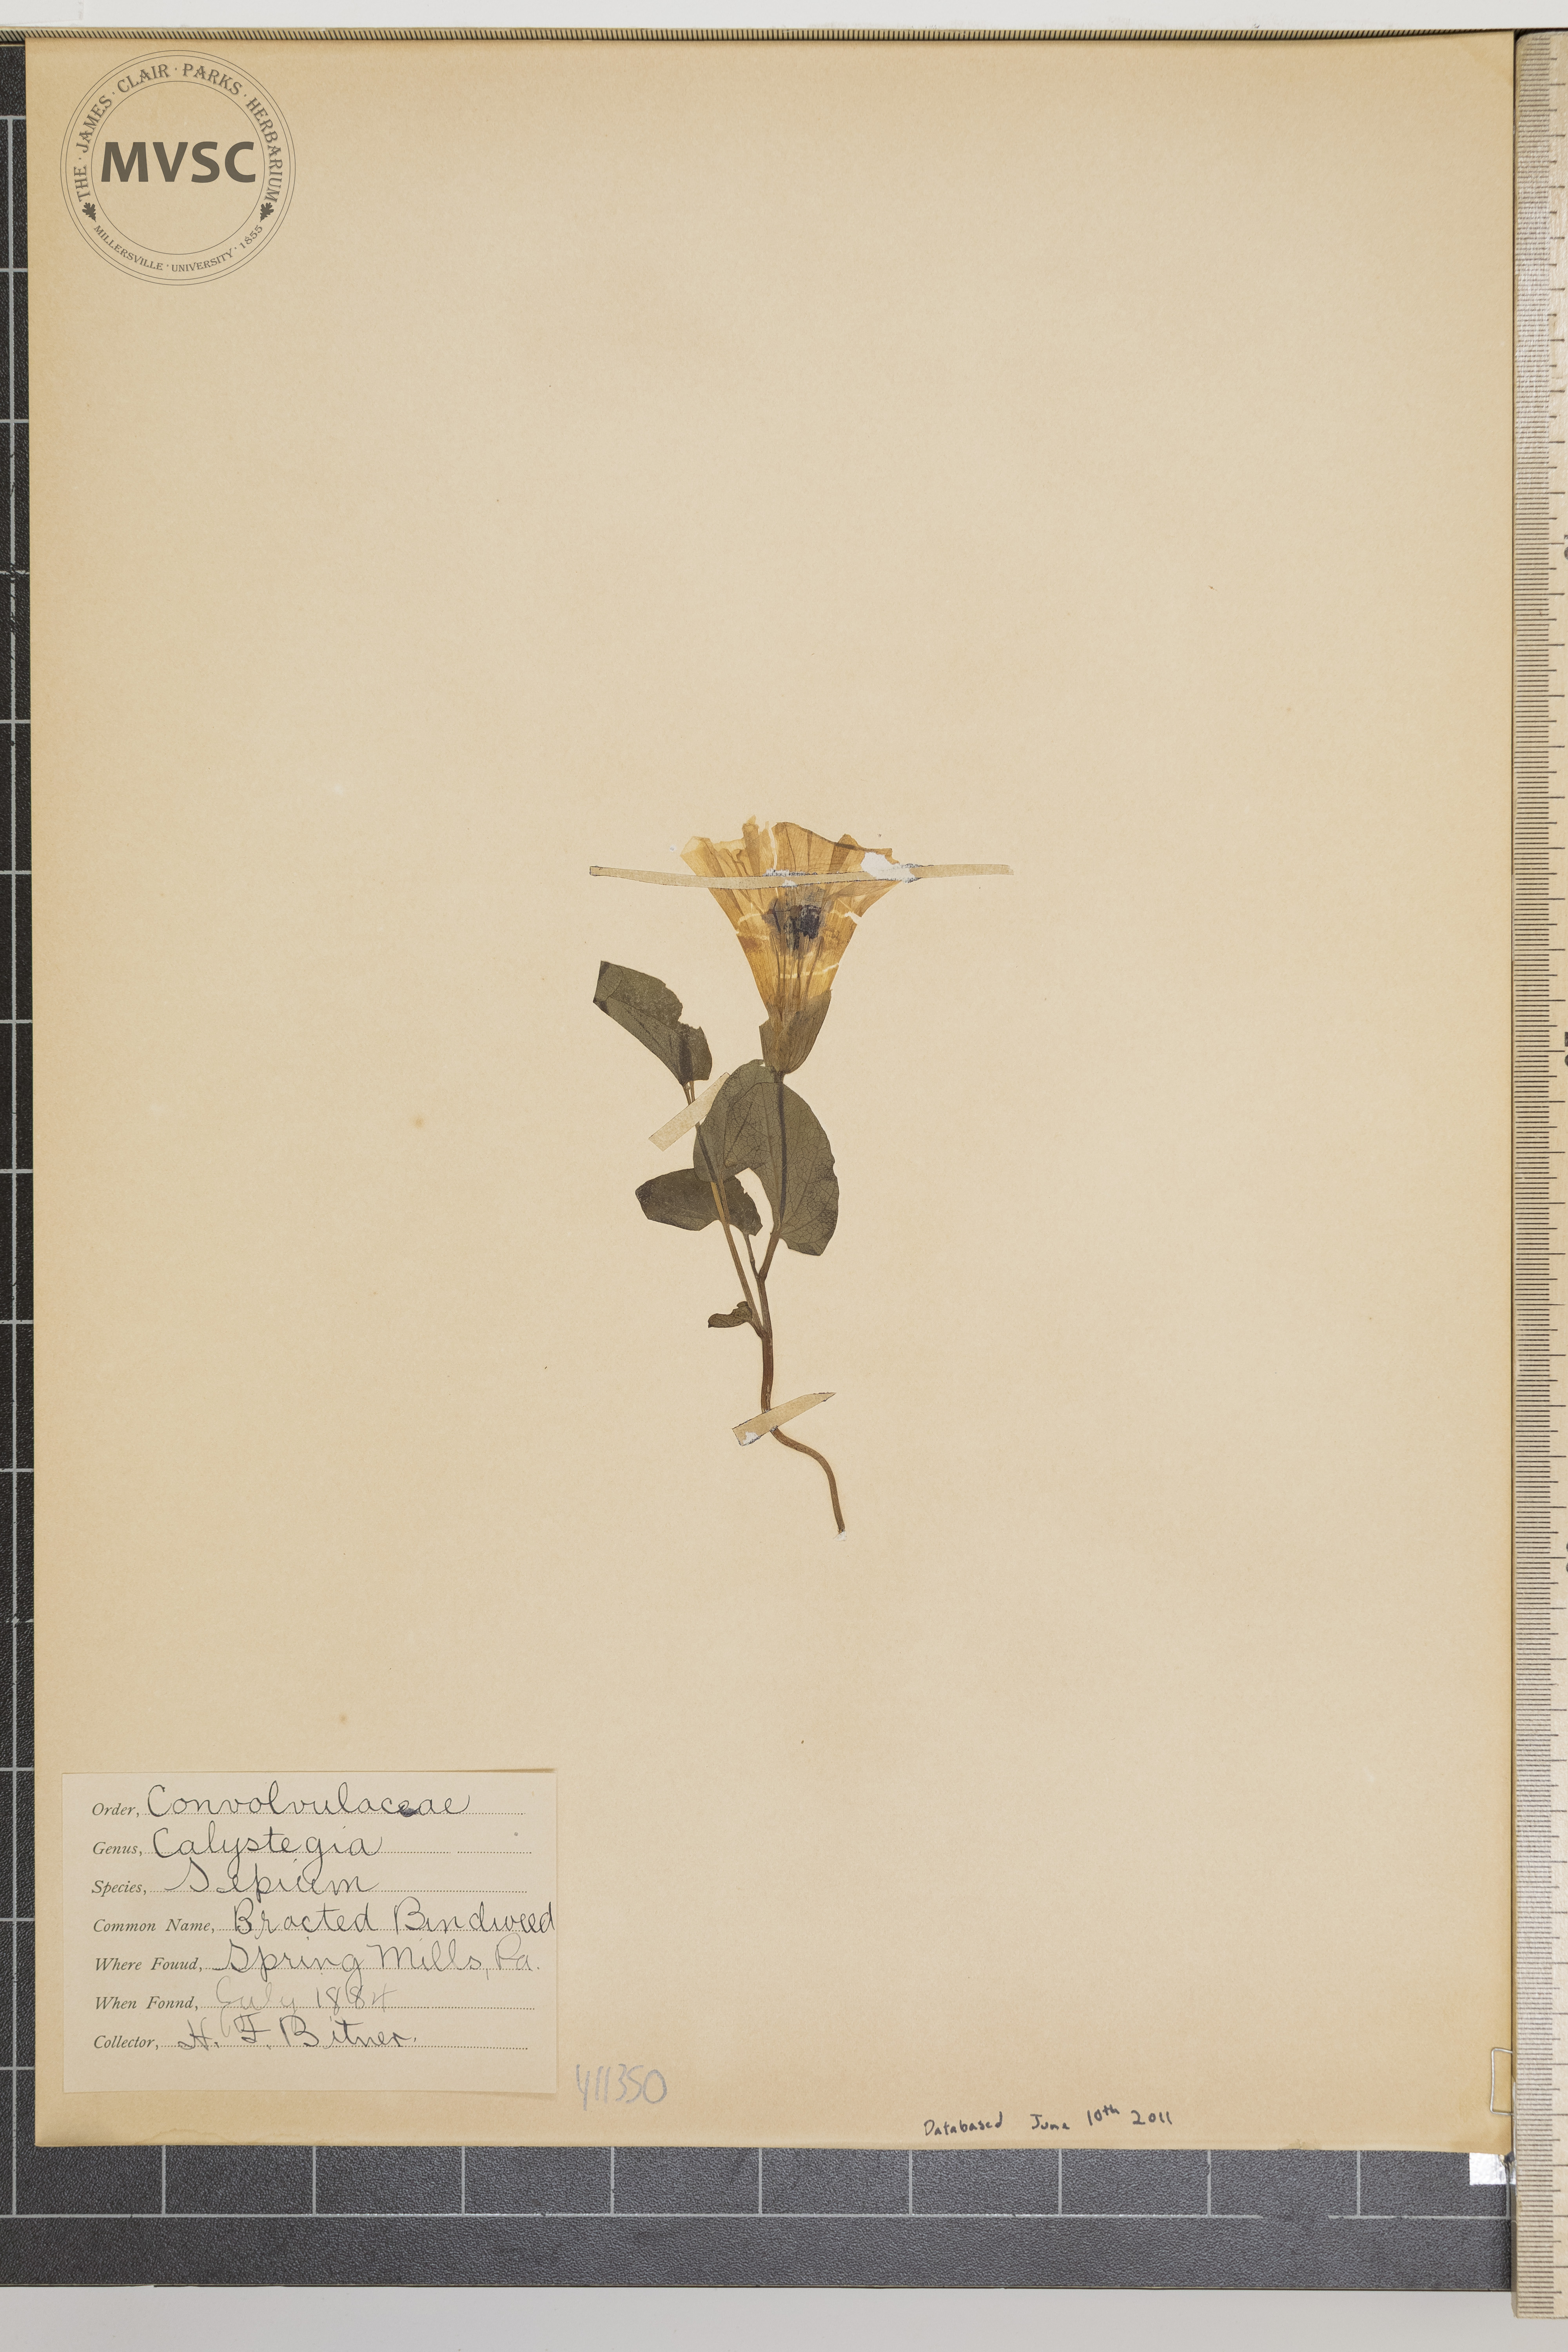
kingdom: Plantae
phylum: Tracheophyta
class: Magnoliopsida
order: Solanales
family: Convolvulaceae
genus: Calystegia
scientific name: Calystegia sepium
